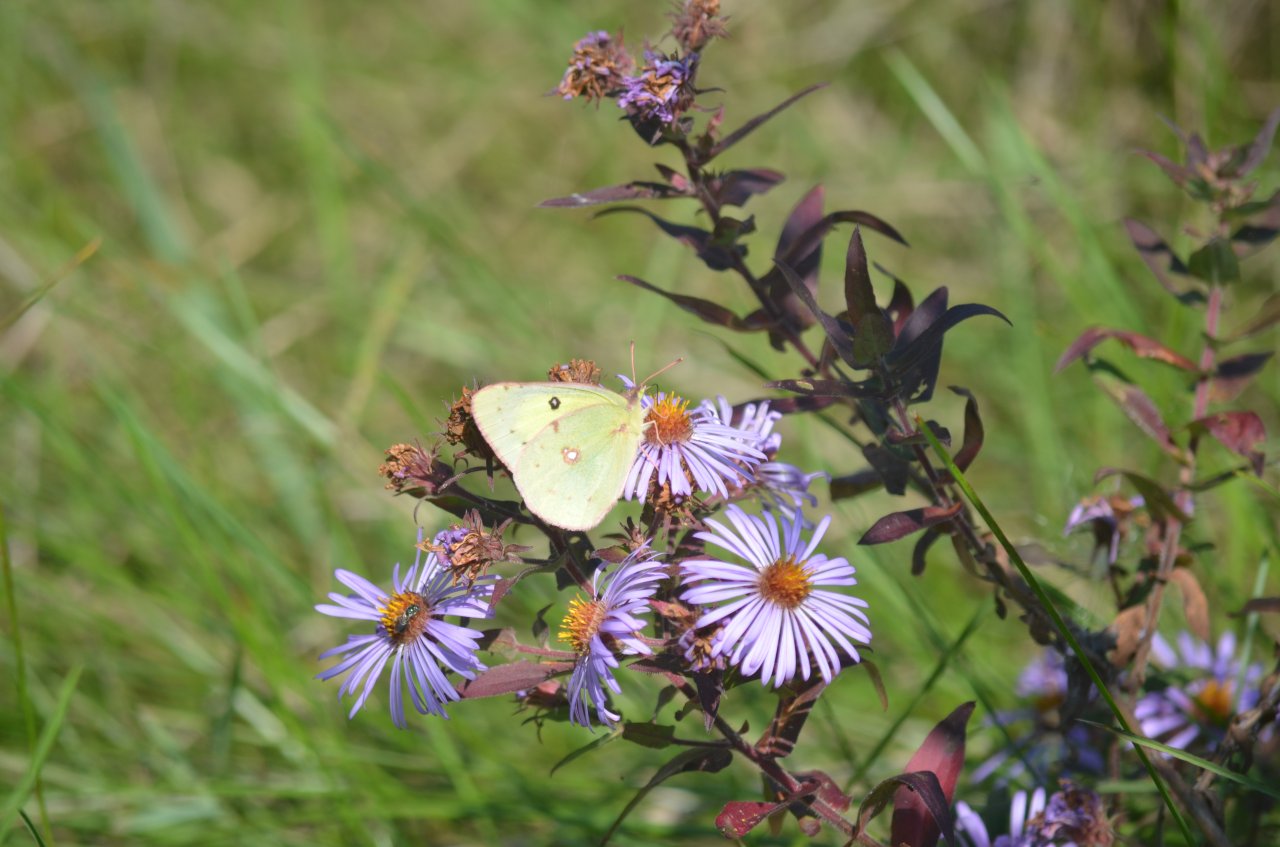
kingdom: Animalia
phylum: Arthropoda
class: Insecta
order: Lepidoptera
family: Pieridae
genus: Colias
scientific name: Colias philodice
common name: Clouded Sulphur
